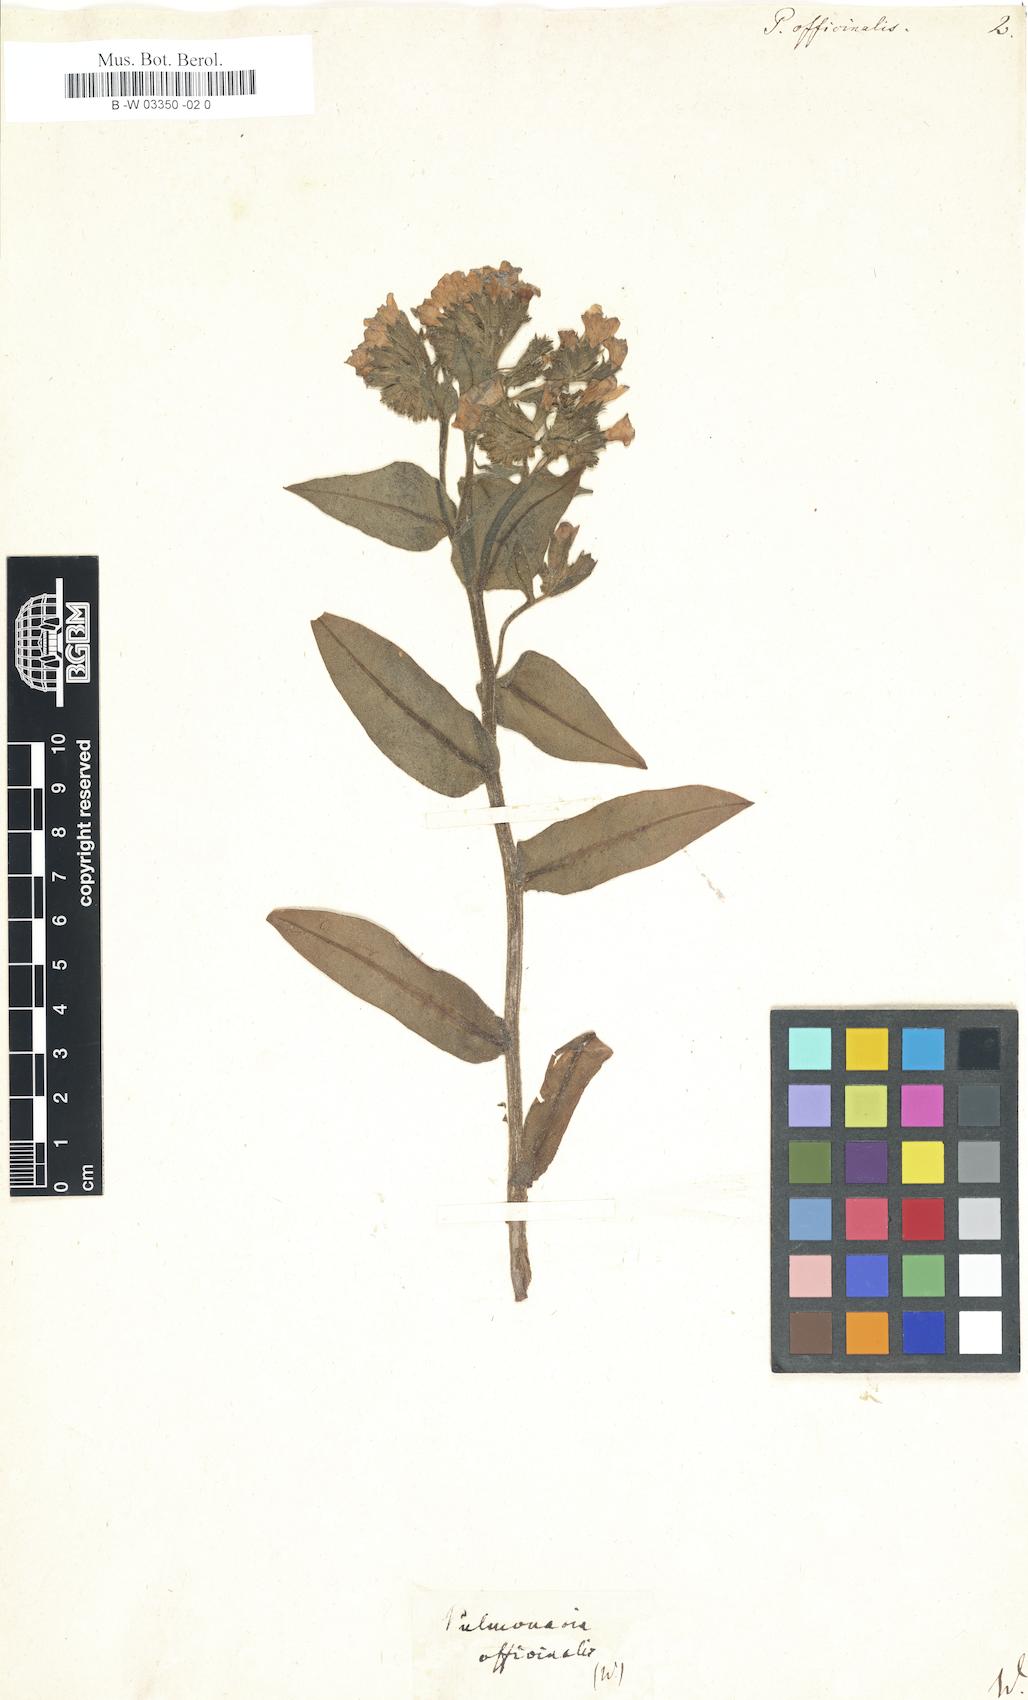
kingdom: Plantae
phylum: Tracheophyta
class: Magnoliopsida
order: Boraginales
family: Boraginaceae
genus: Pulmonaria
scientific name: Pulmonaria officinalis
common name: Lungwort
